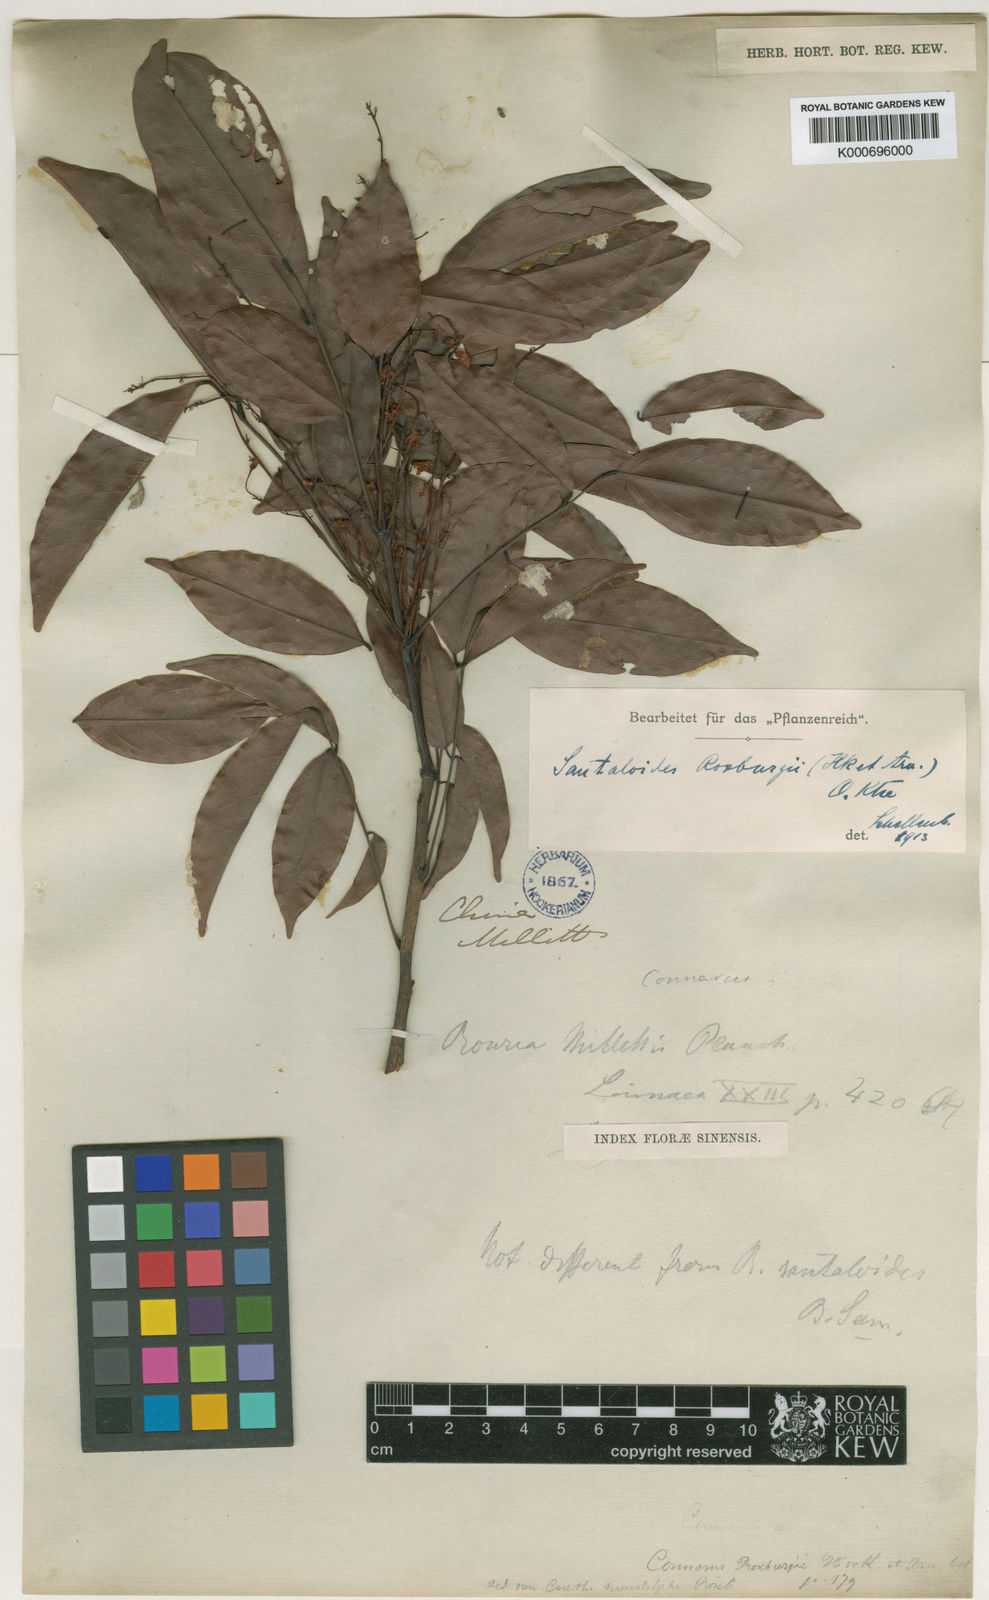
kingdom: Plantae
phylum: Tracheophyta
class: Magnoliopsida
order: Oxalidales
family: Connaraceae
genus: Rourea
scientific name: Rourea minor
